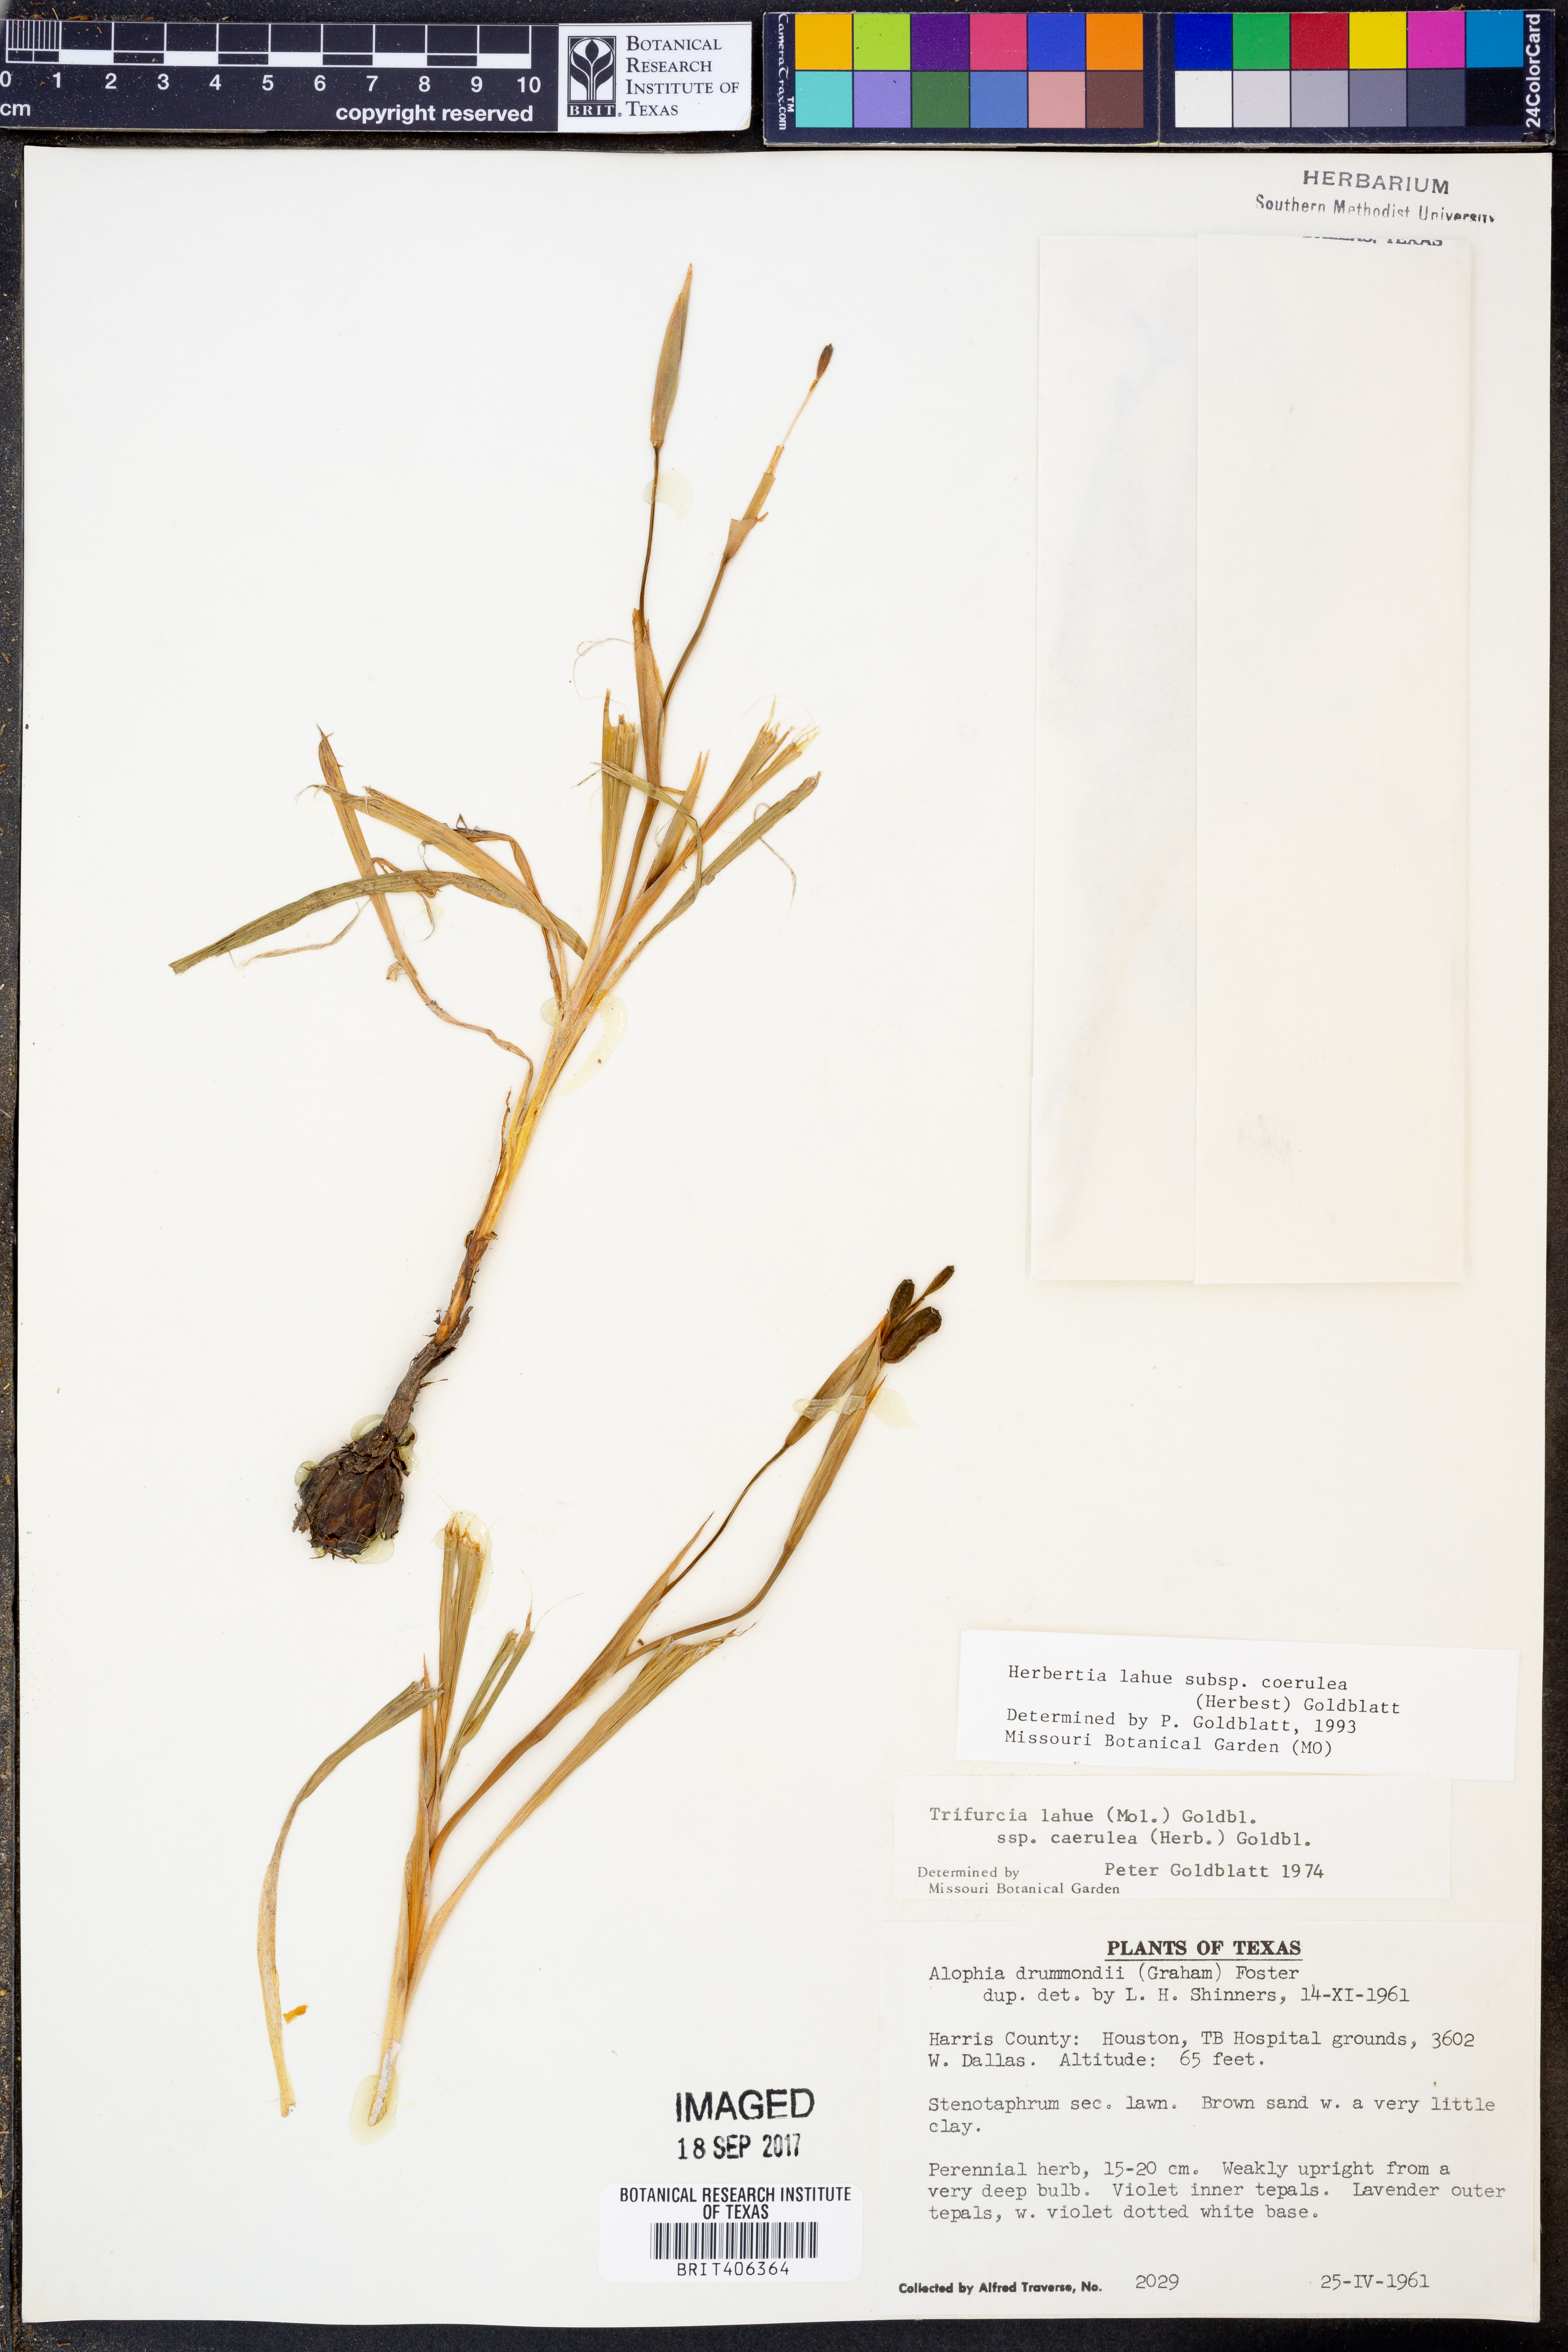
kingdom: Plantae
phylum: Tracheophyta
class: Liliopsida
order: Asparagales
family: Iridaceae
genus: Herbertia
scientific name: Herbertia lahue
